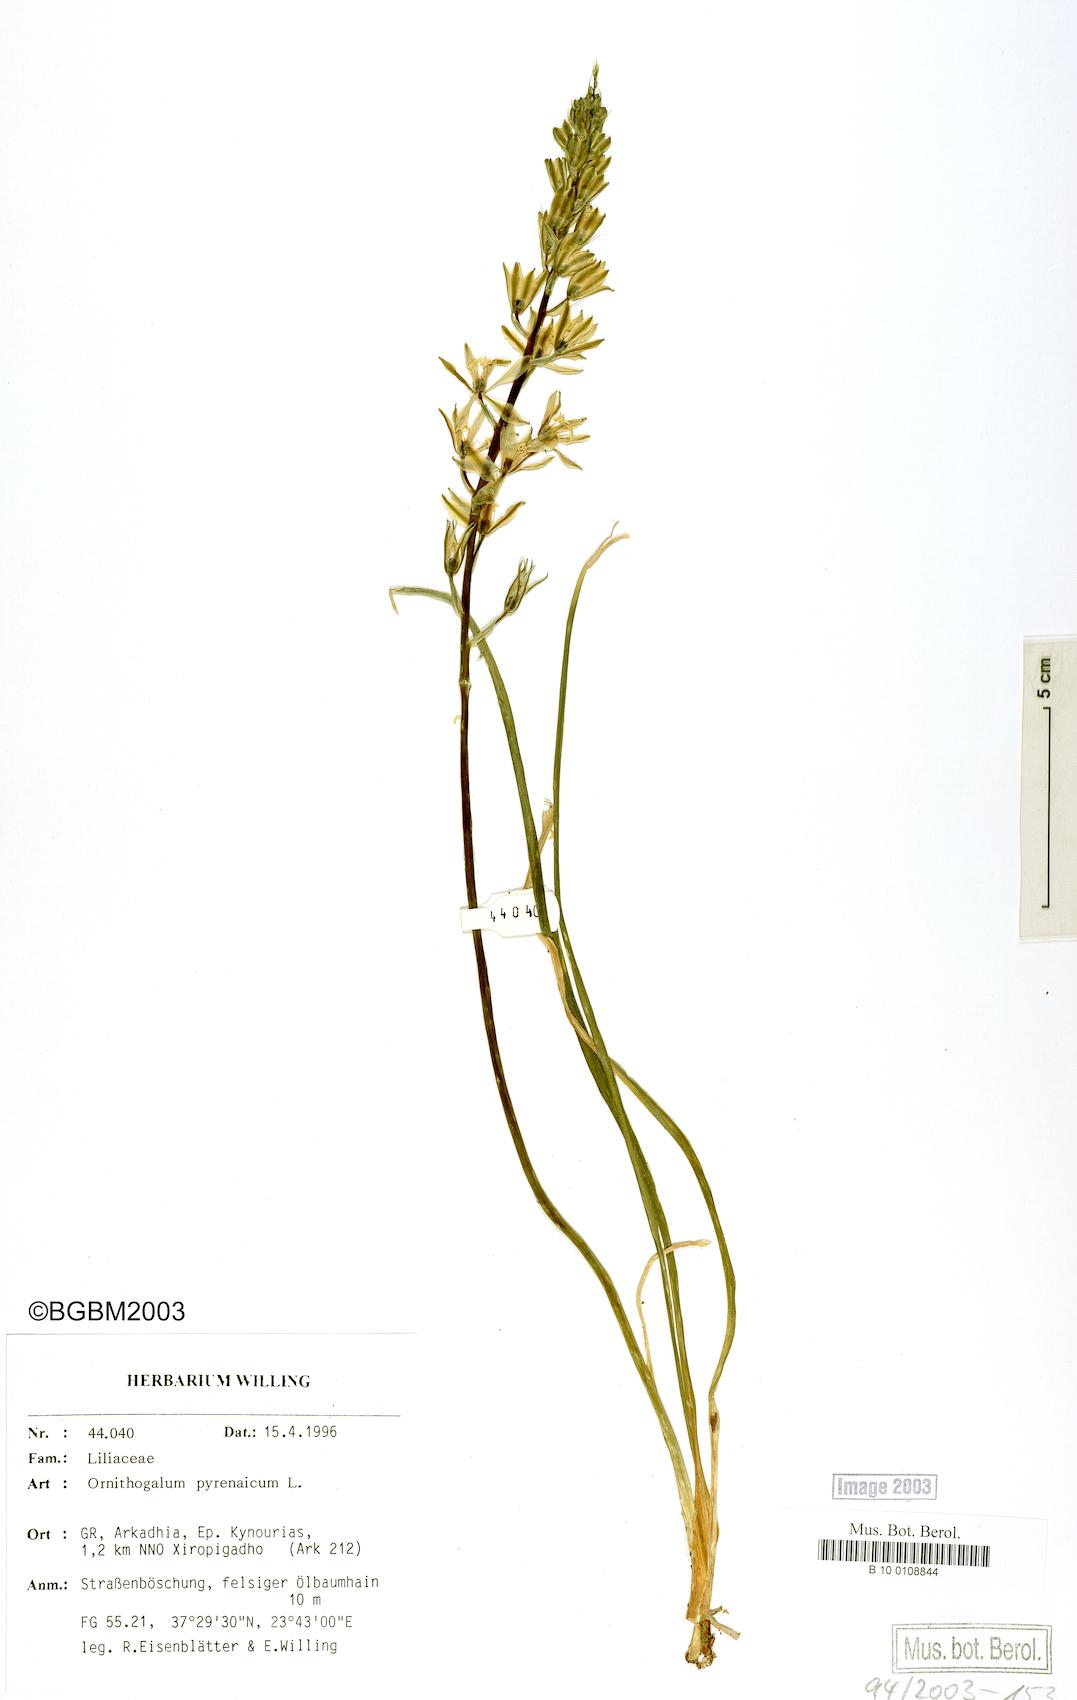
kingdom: Plantae
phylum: Tracheophyta
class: Liliopsida
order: Asparagales
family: Asparagaceae
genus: Ornithogalum
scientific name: Ornithogalum pyrenaicum
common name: Spiked star-of-bethlehem
